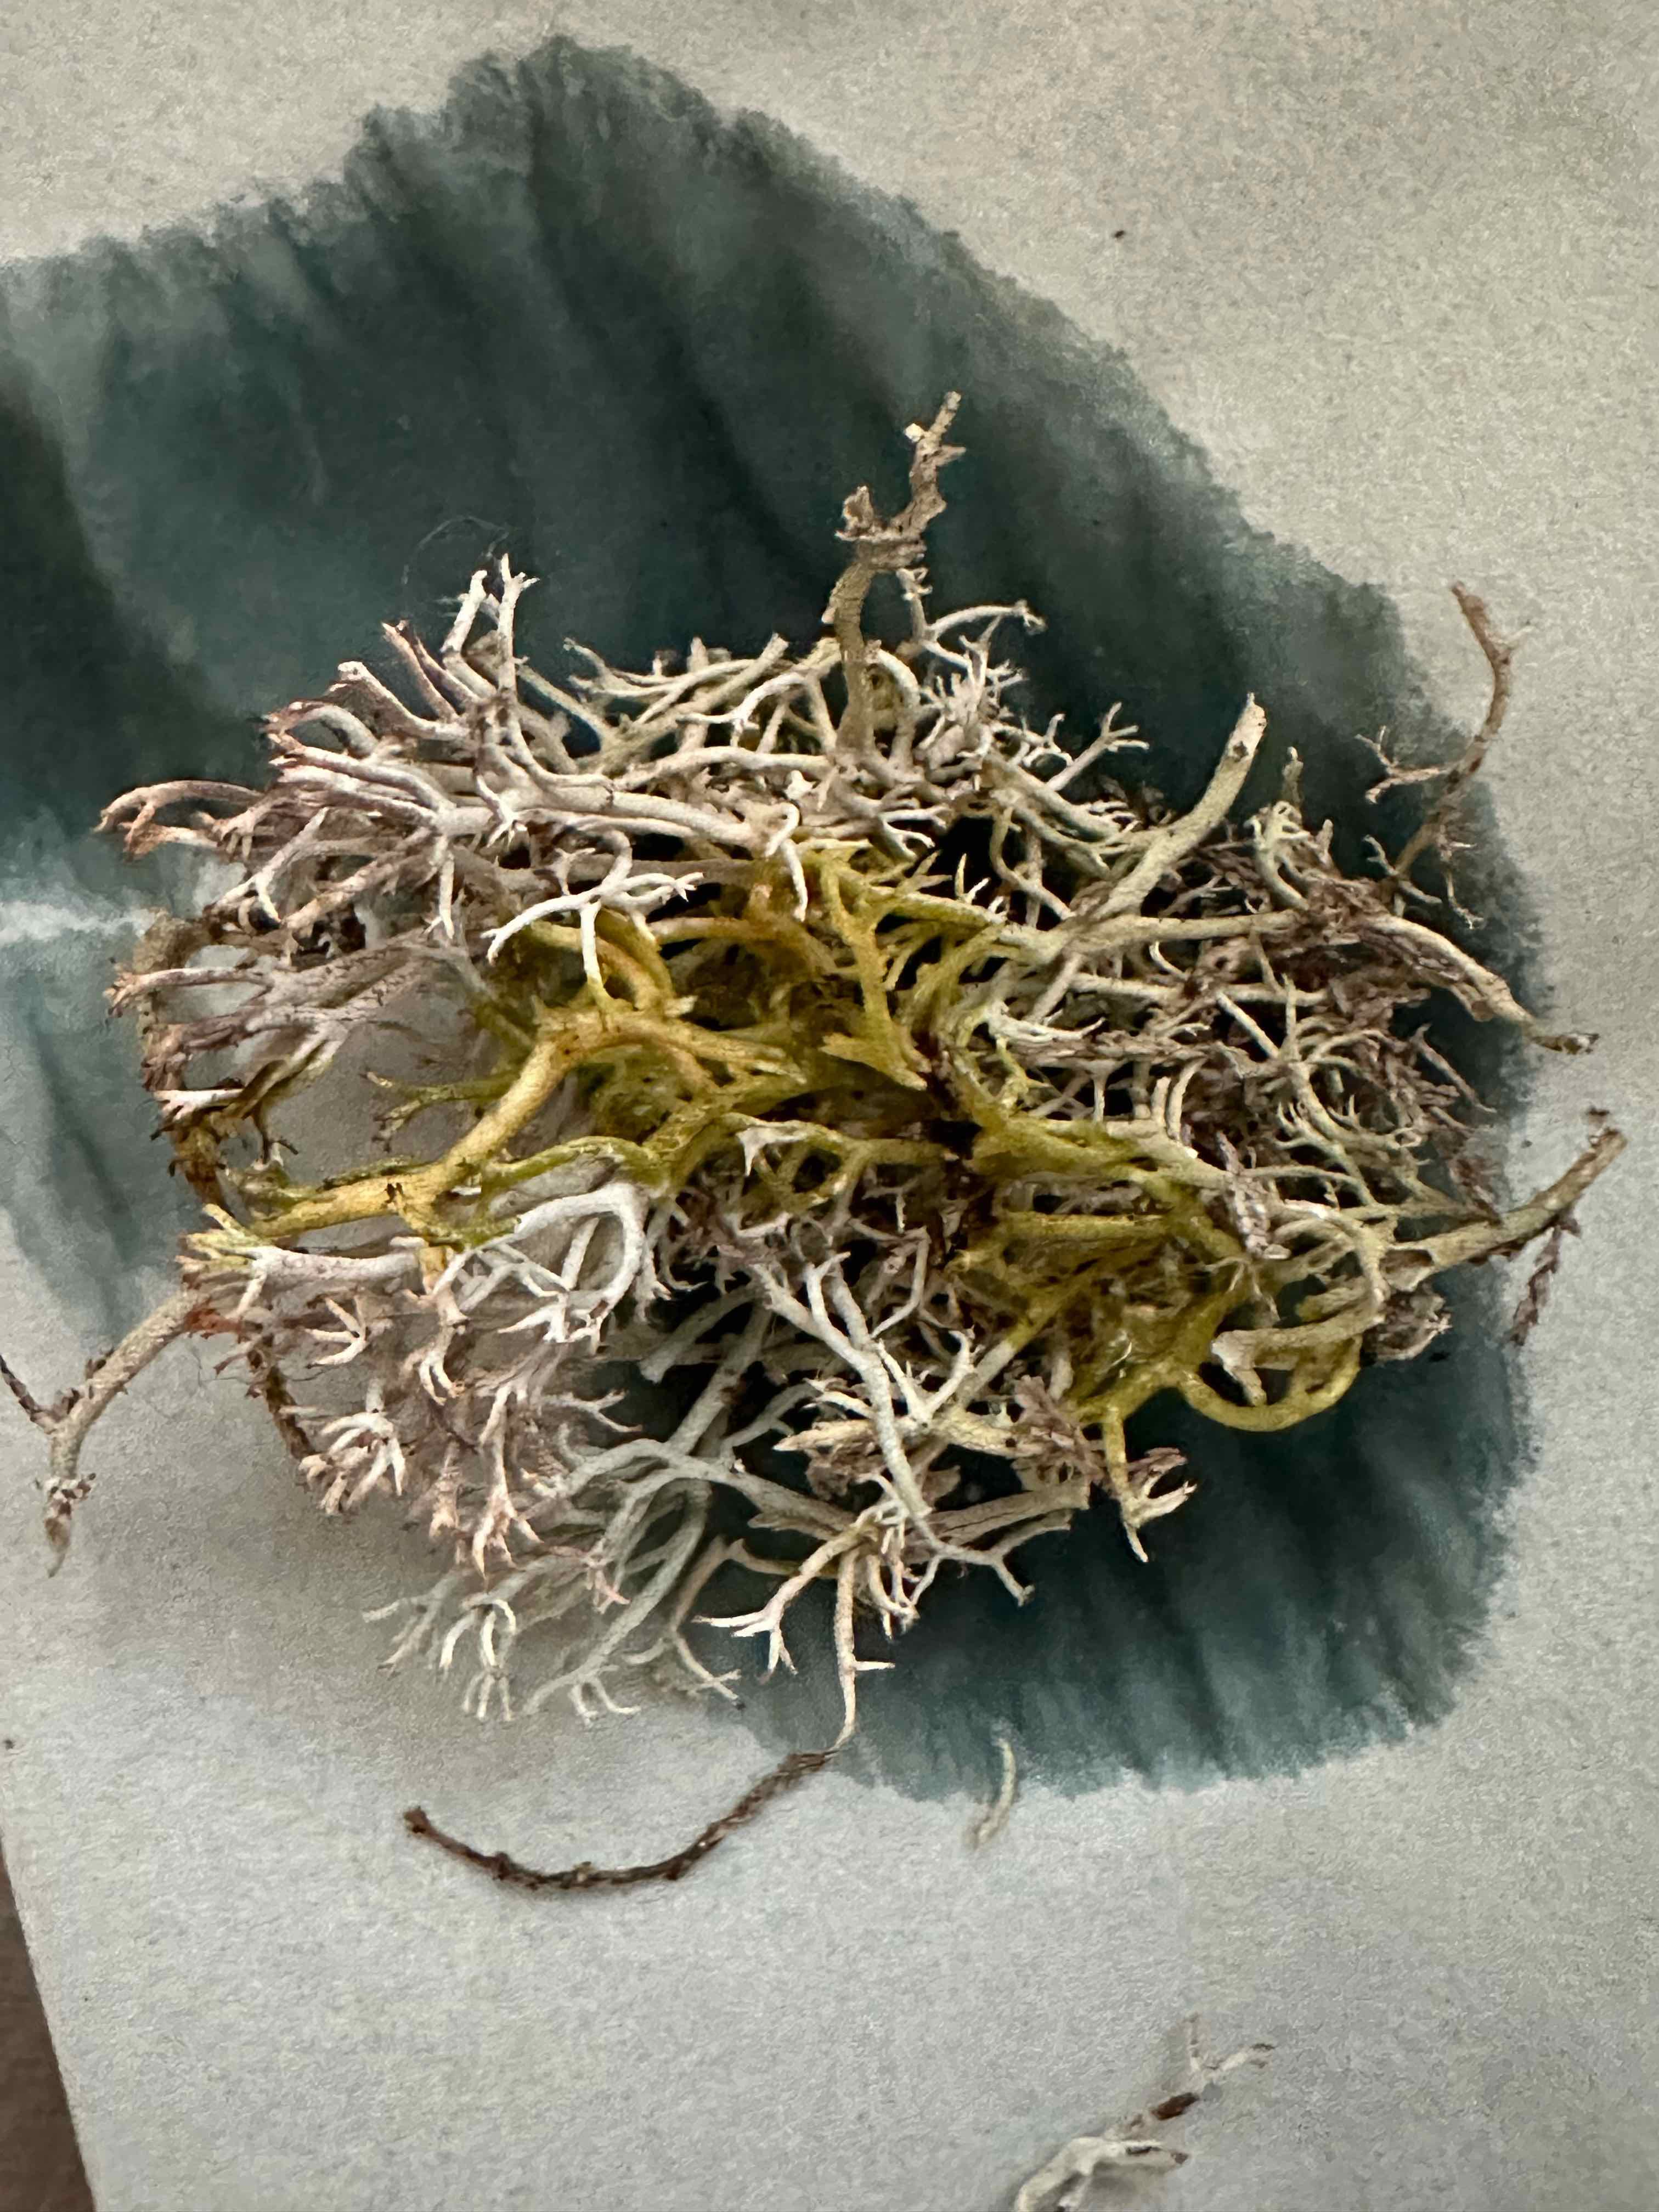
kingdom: Fungi
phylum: Ascomycota
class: Lecanoromycetes
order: Lecanorales
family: Cladoniaceae
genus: Cladonia
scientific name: Cladonia rangiferina
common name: askegrå rensdyrlav
